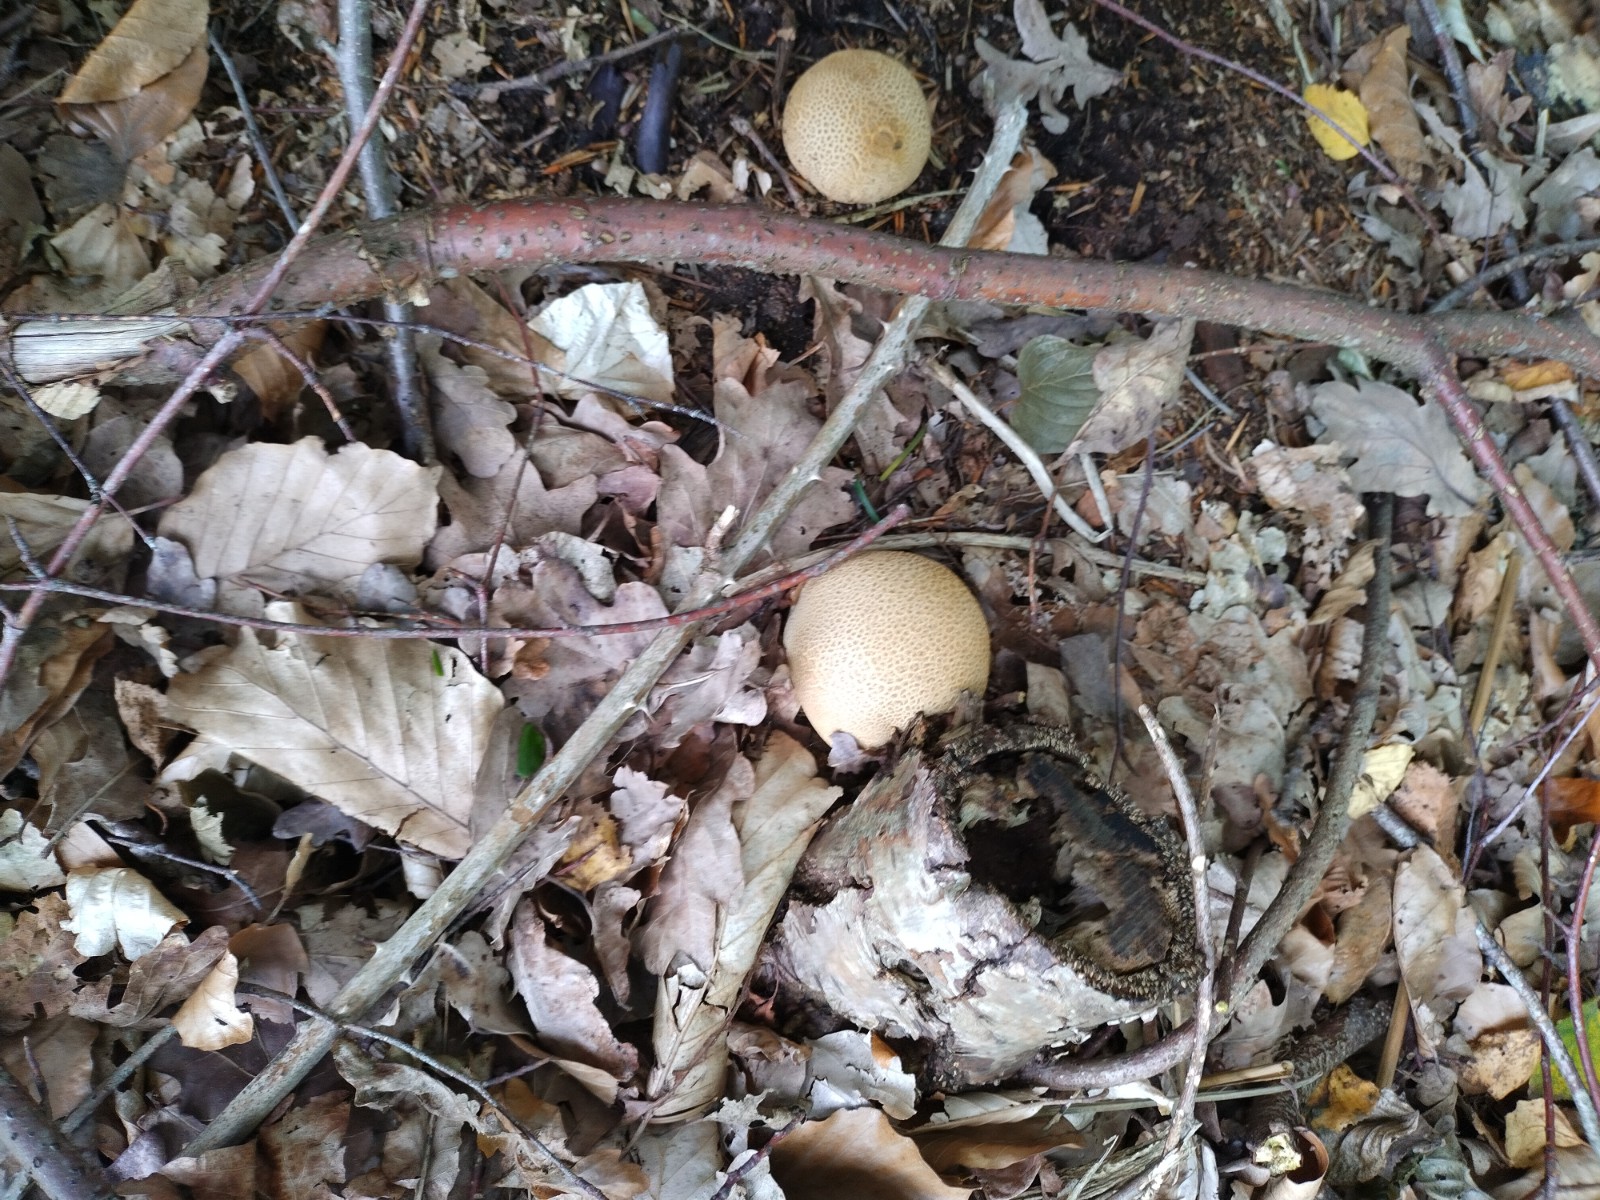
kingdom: Fungi
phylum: Basidiomycota
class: Agaricomycetes
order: Boletales
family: Sclerodermataceae
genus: Scleroderma
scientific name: Scleroderma citrinum
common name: almindelig bruskbold
